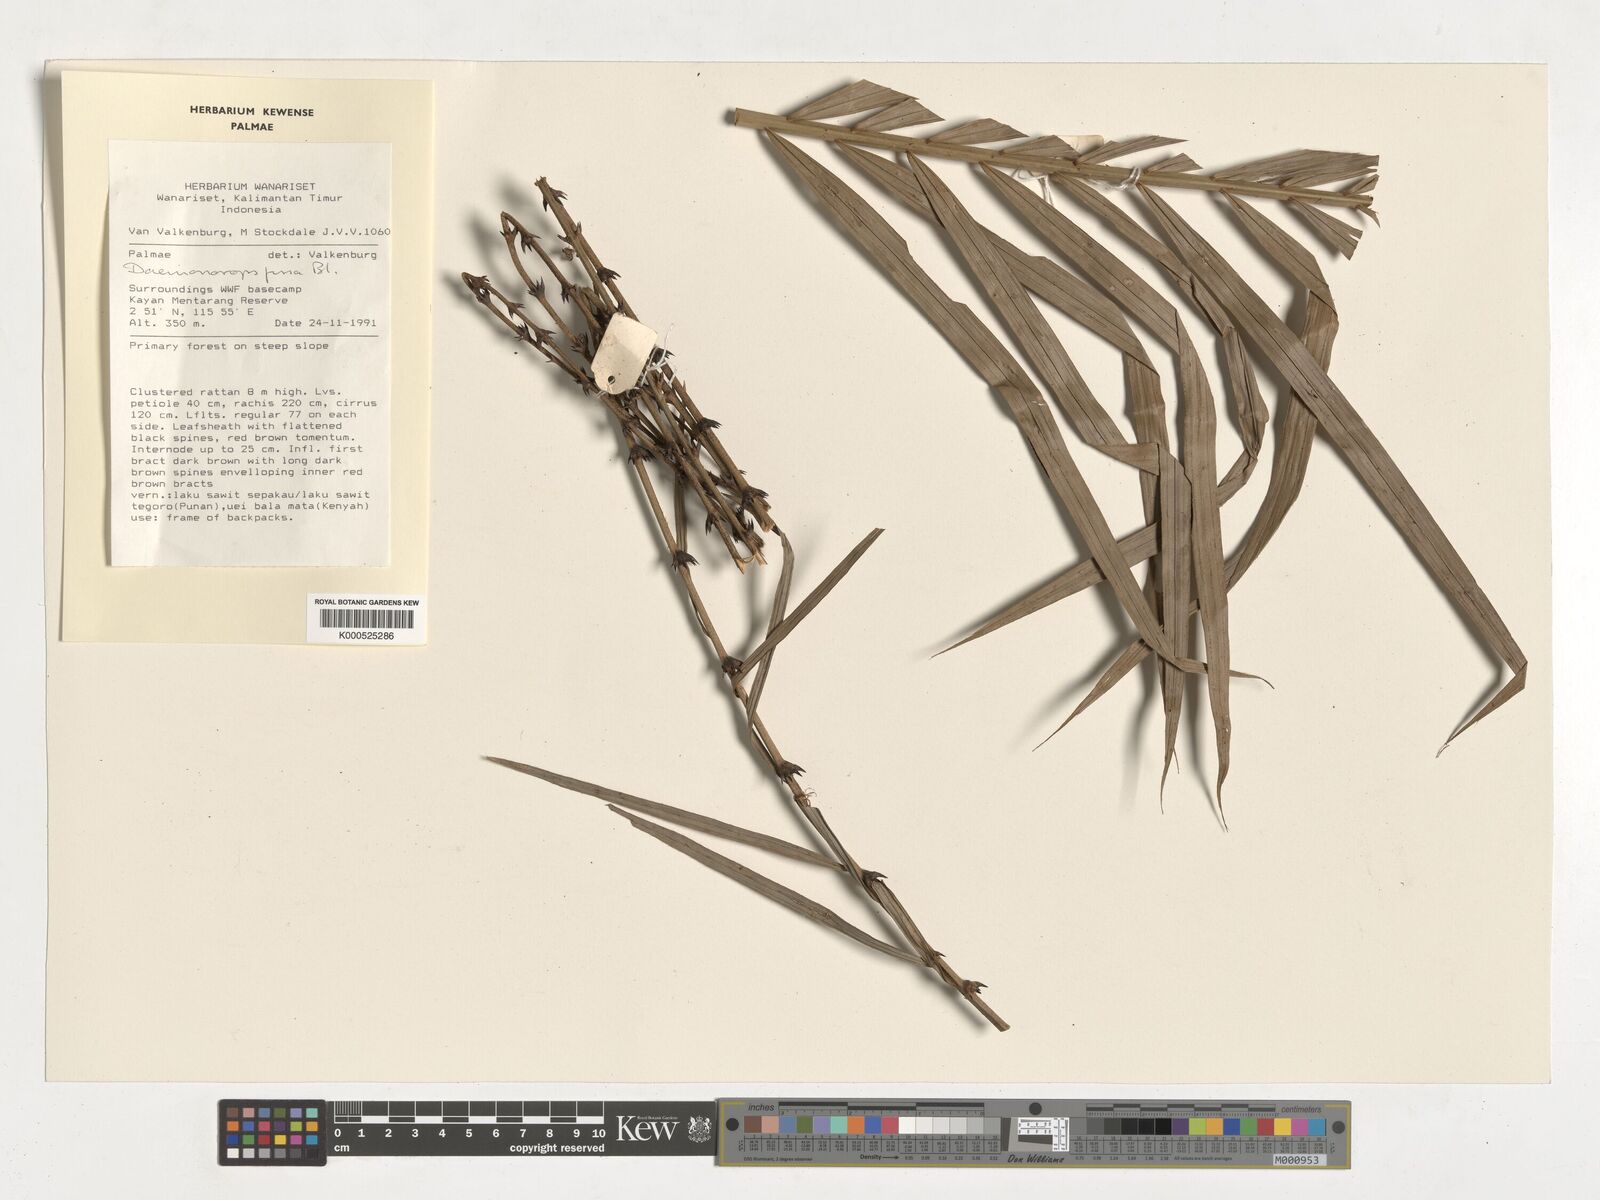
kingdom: Plantae
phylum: Tracheophyta
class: Liliopsida
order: Arecales
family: Arecaceae
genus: Calamus
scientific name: Calamus melanochaetes
